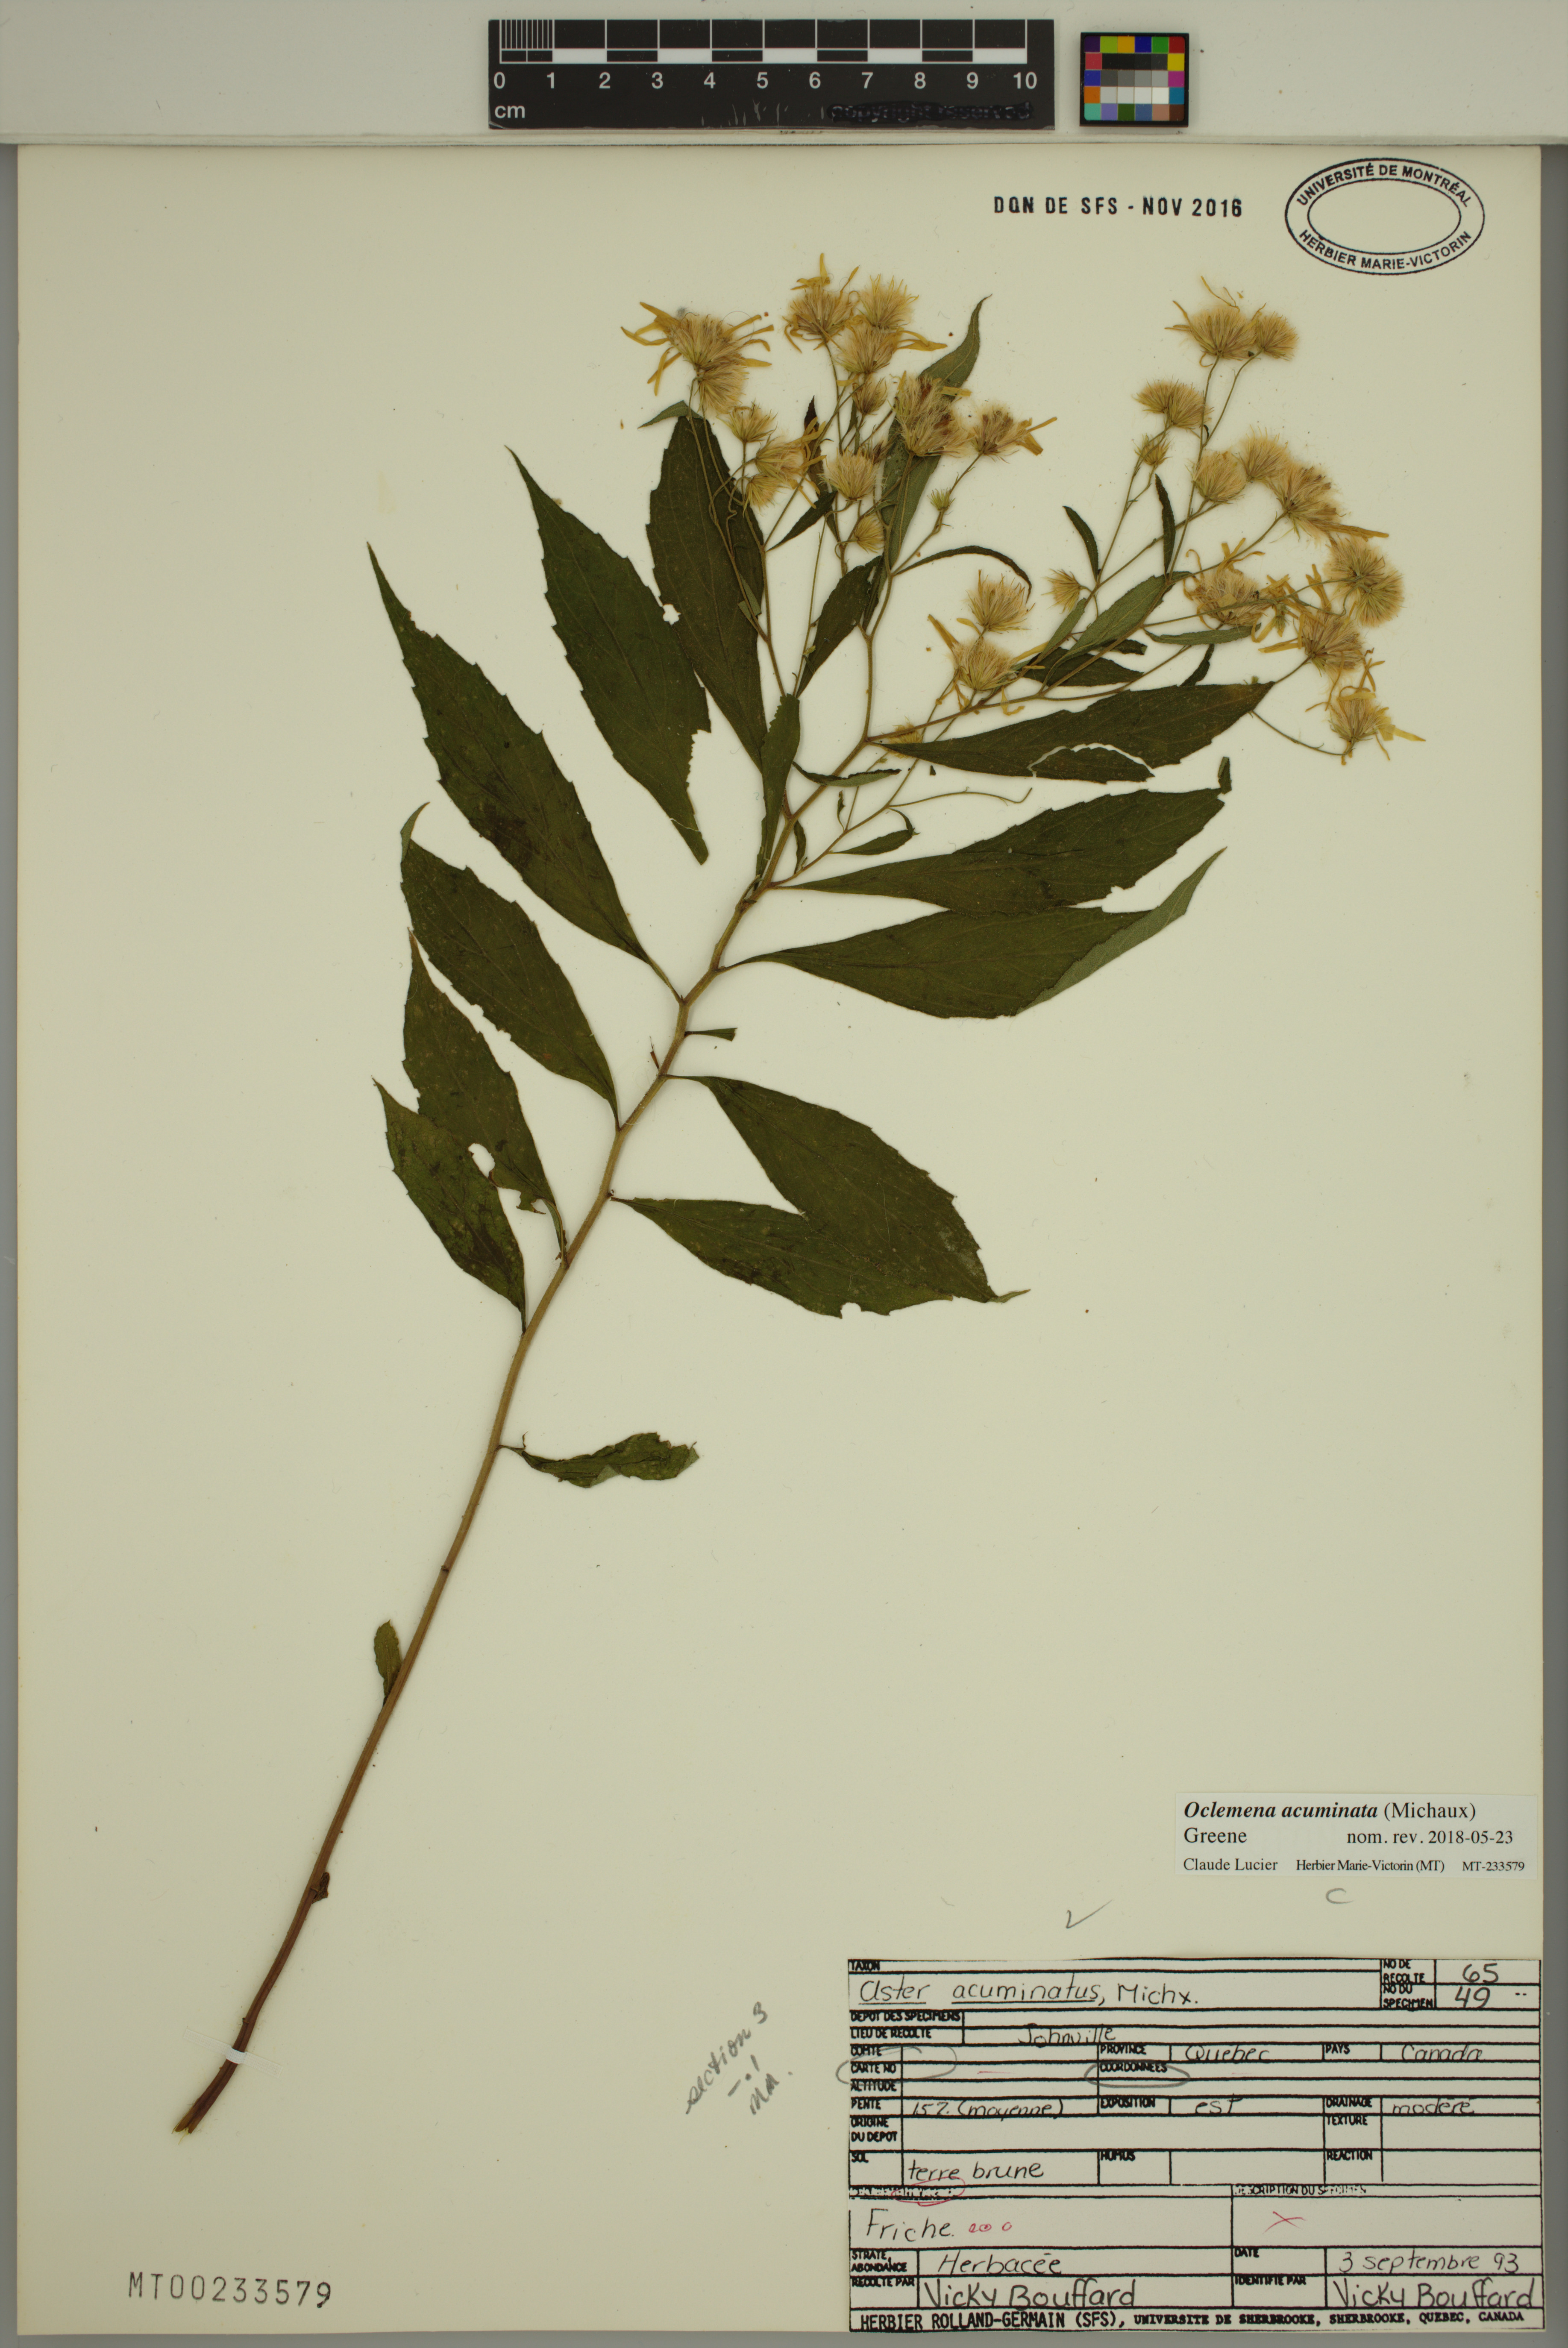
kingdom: Plantae
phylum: Tracheophyta
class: Magnoliopsida
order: Asterales
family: Asteraceae
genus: Oclemena
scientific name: Oclemena acuminata
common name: Mountain aster
